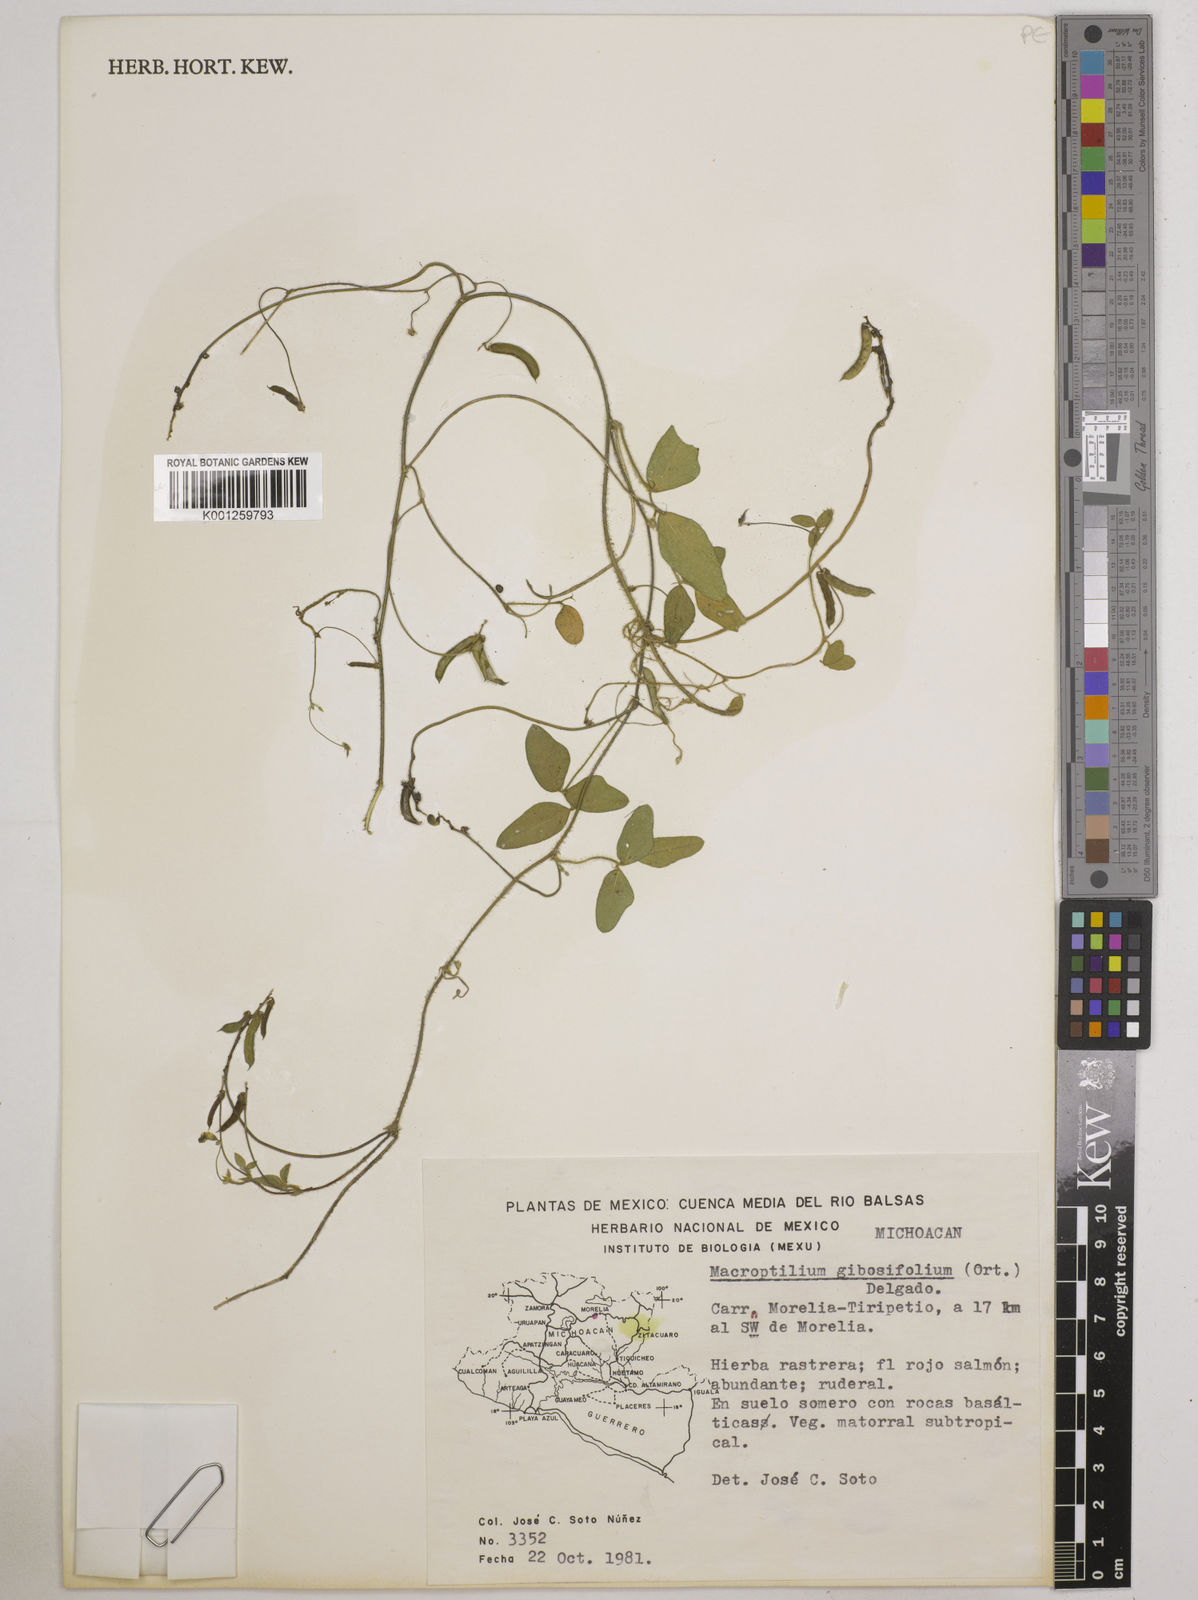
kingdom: Plantae
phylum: Tracheophyta
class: Magnoliopsida
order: Fabales
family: Fabaceae
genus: Macroptilium
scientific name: Macroptilium gibbosifolium
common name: Variableleaf bushbean
